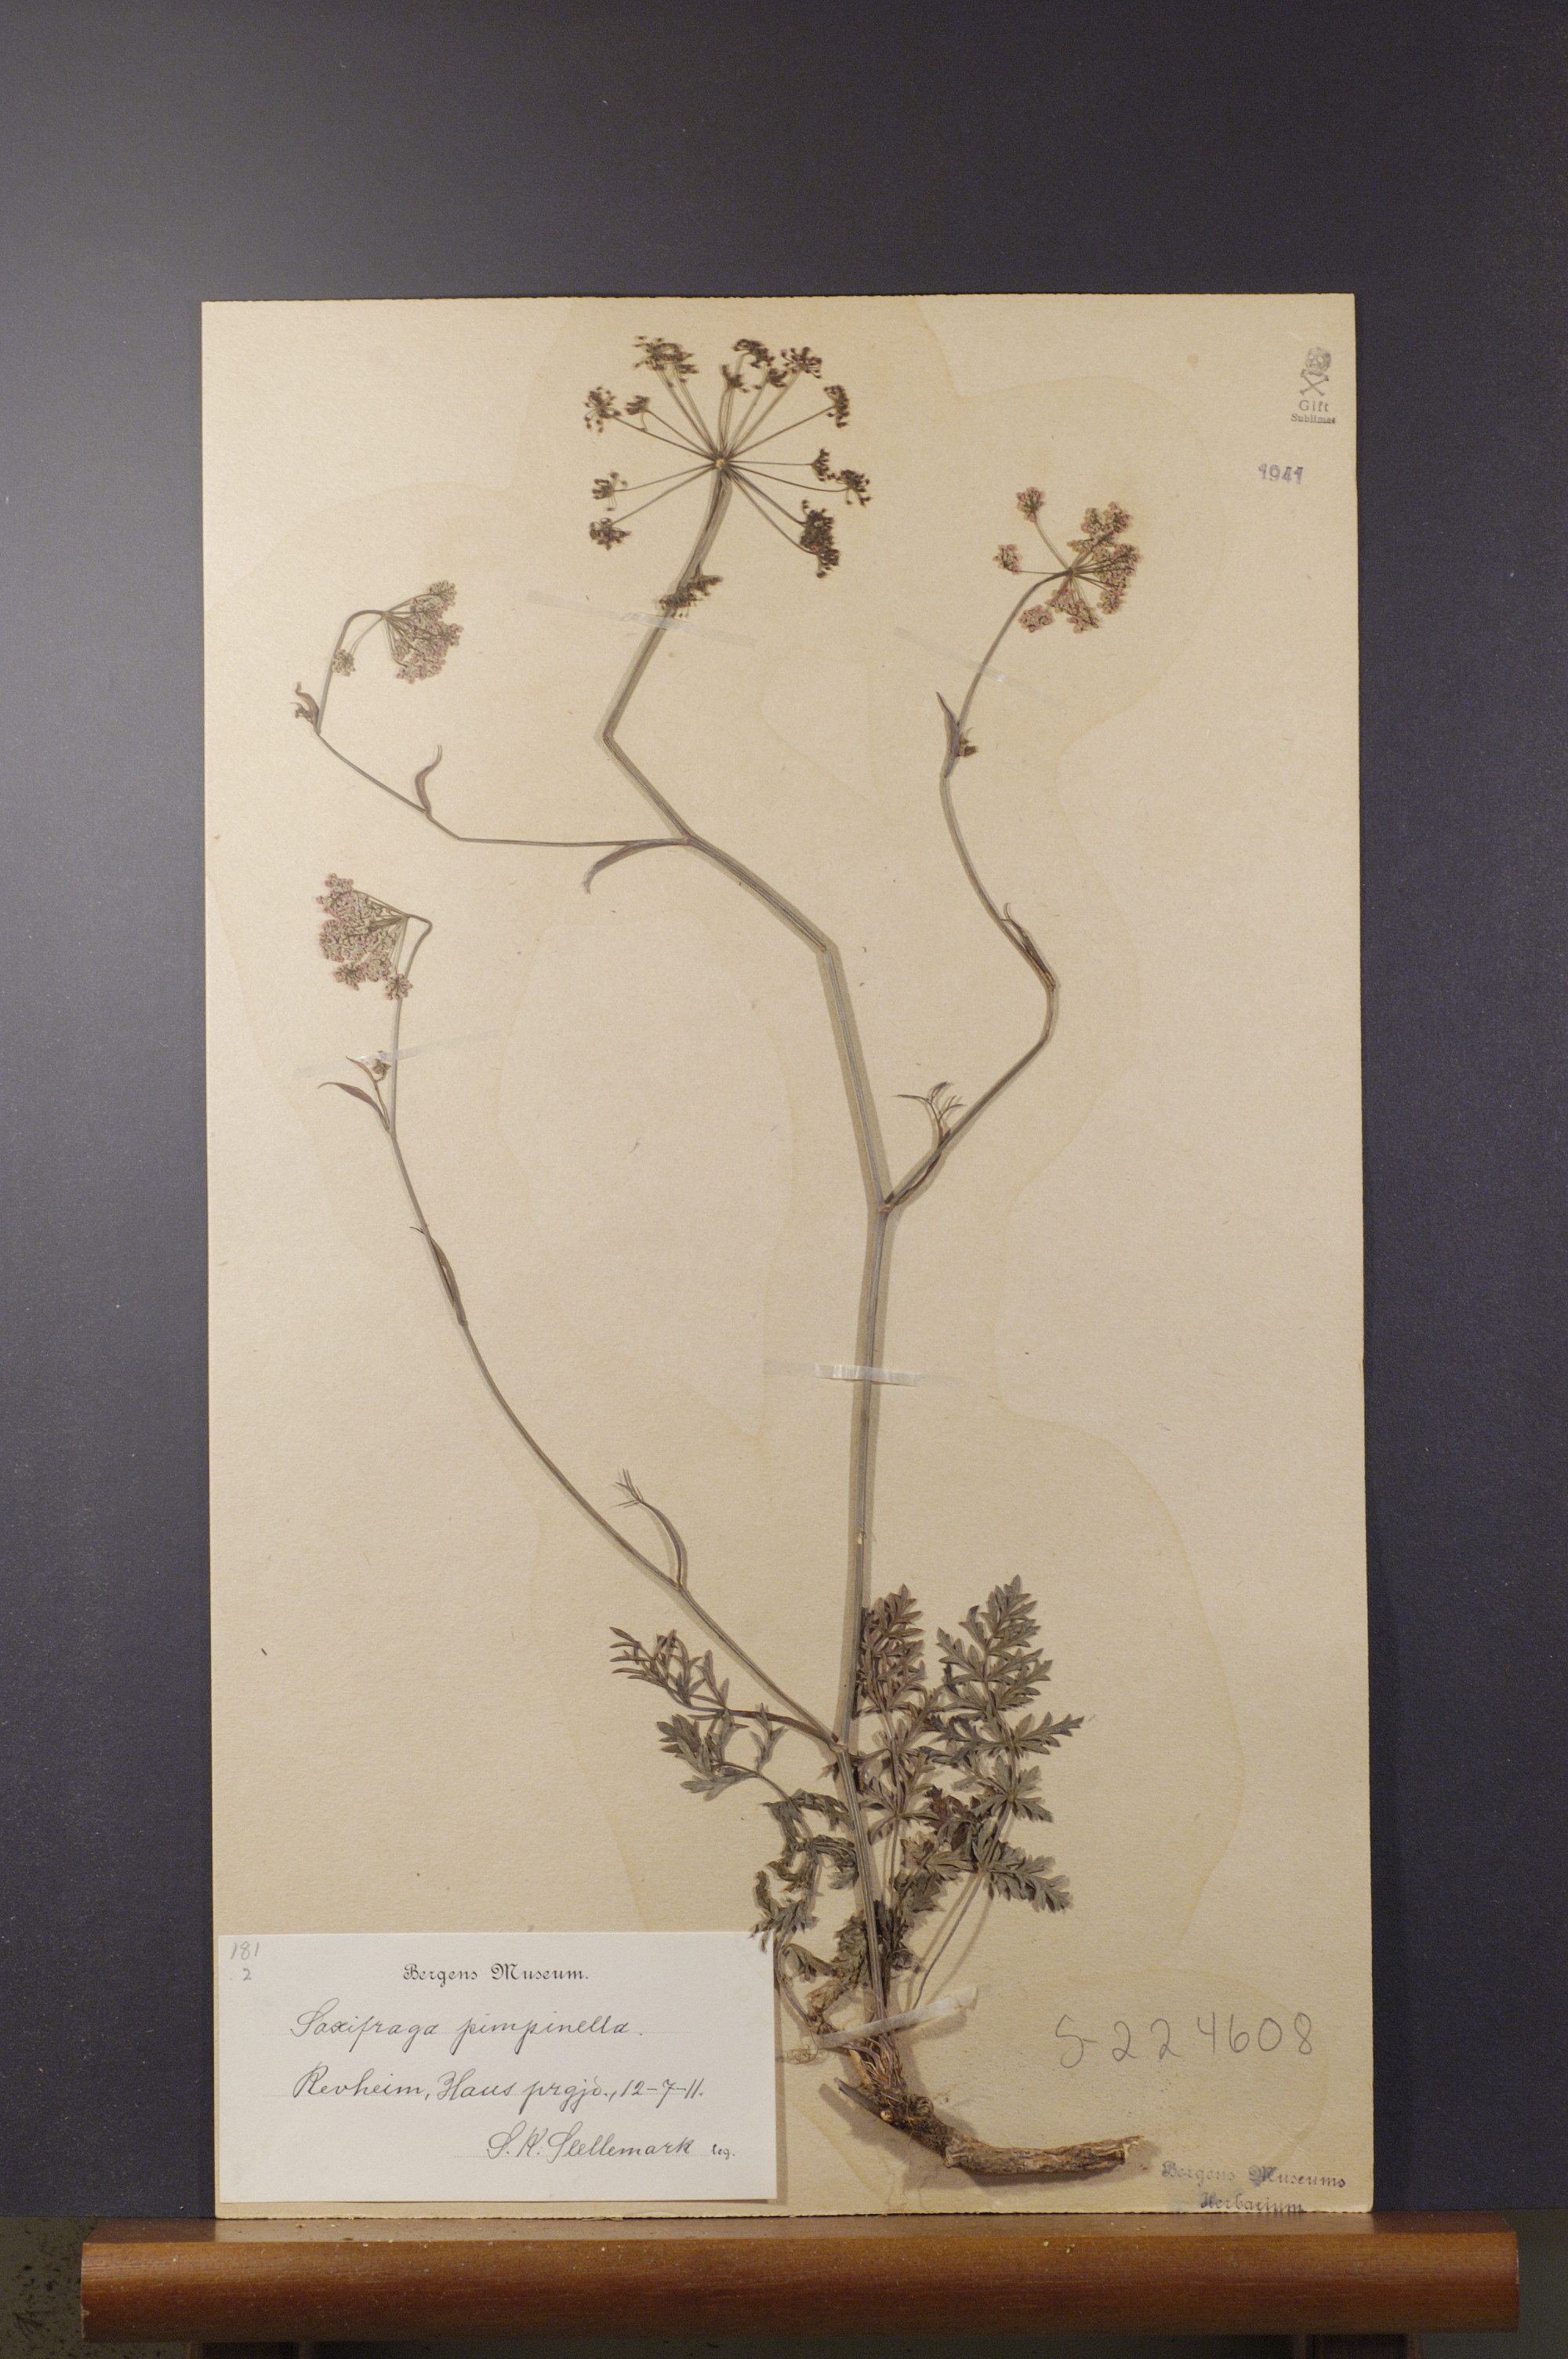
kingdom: Plantae
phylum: Tracheophyta
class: Magnoliopsida
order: Apiales
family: Apiaceae
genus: Pimpinella
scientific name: Pimpinella saxifraga
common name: Burnet-saxifrage
